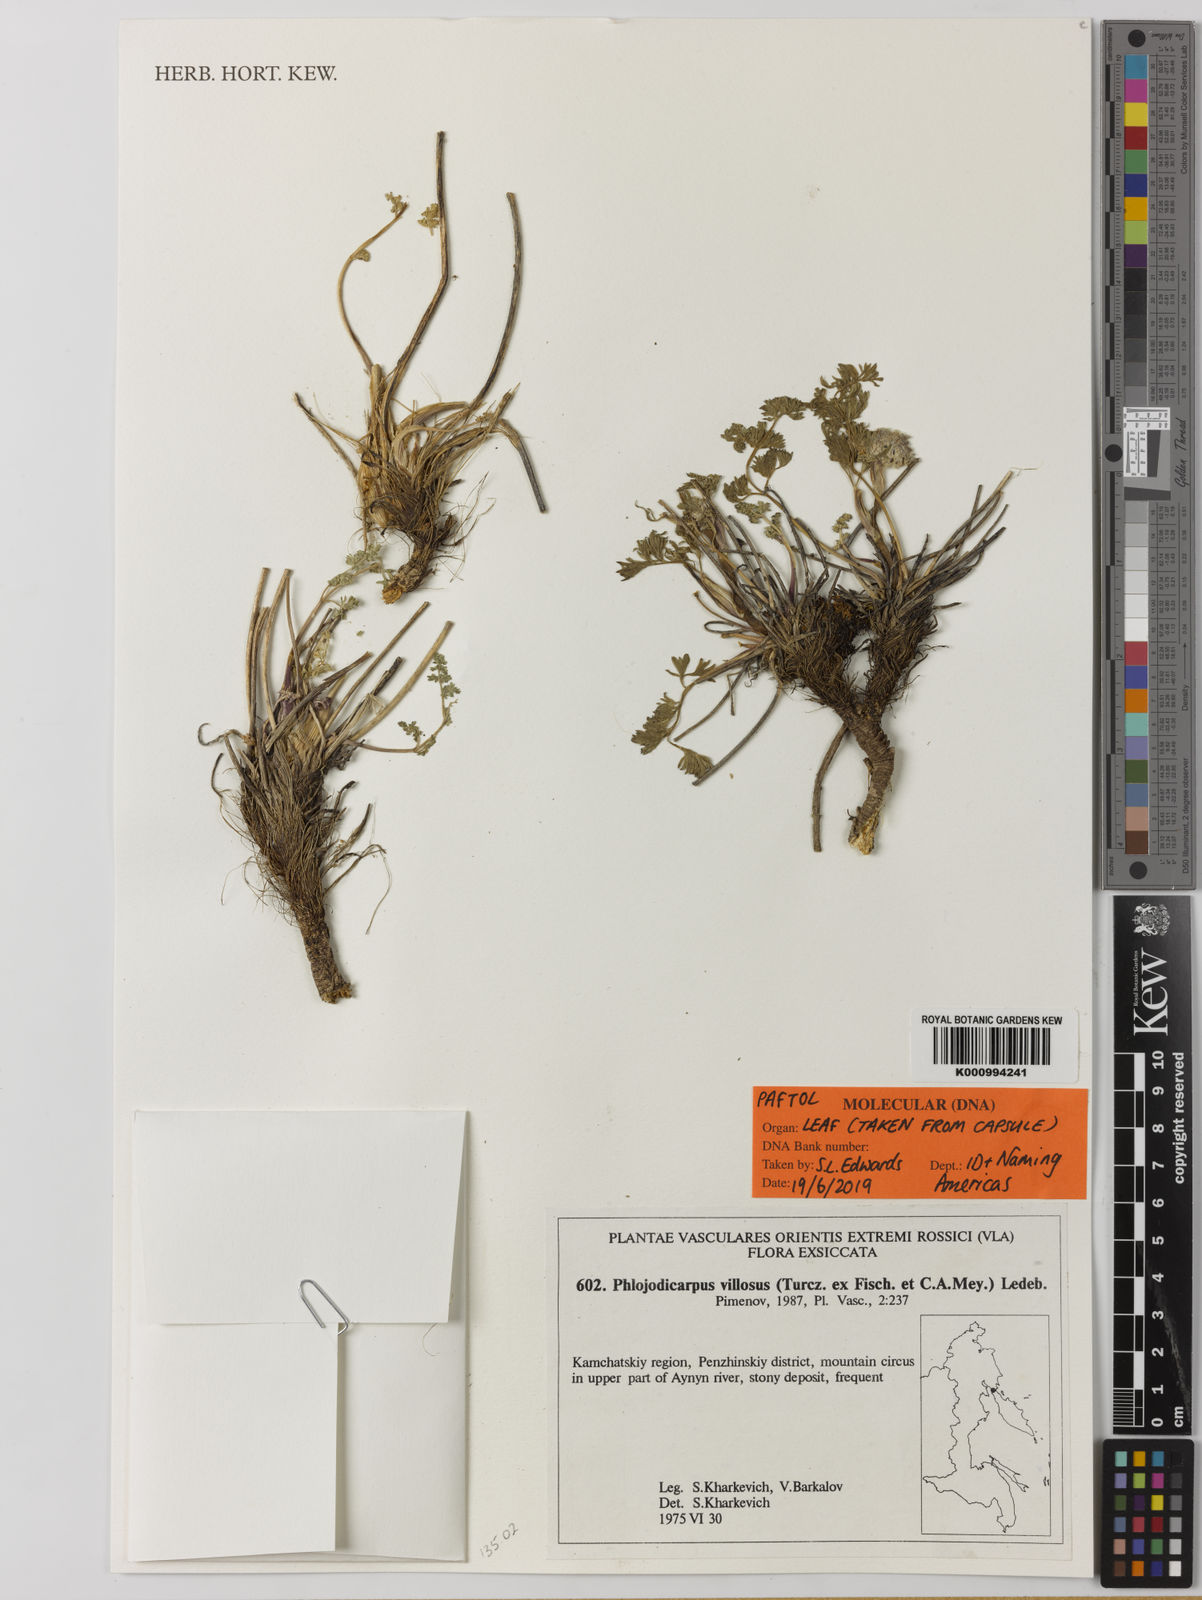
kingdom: Plantae
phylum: Tracheophyta
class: Magnoliopsida
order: Apiales
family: Apiaceae
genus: Phlojodicarpus
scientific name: Phlojodicarpus villosus
